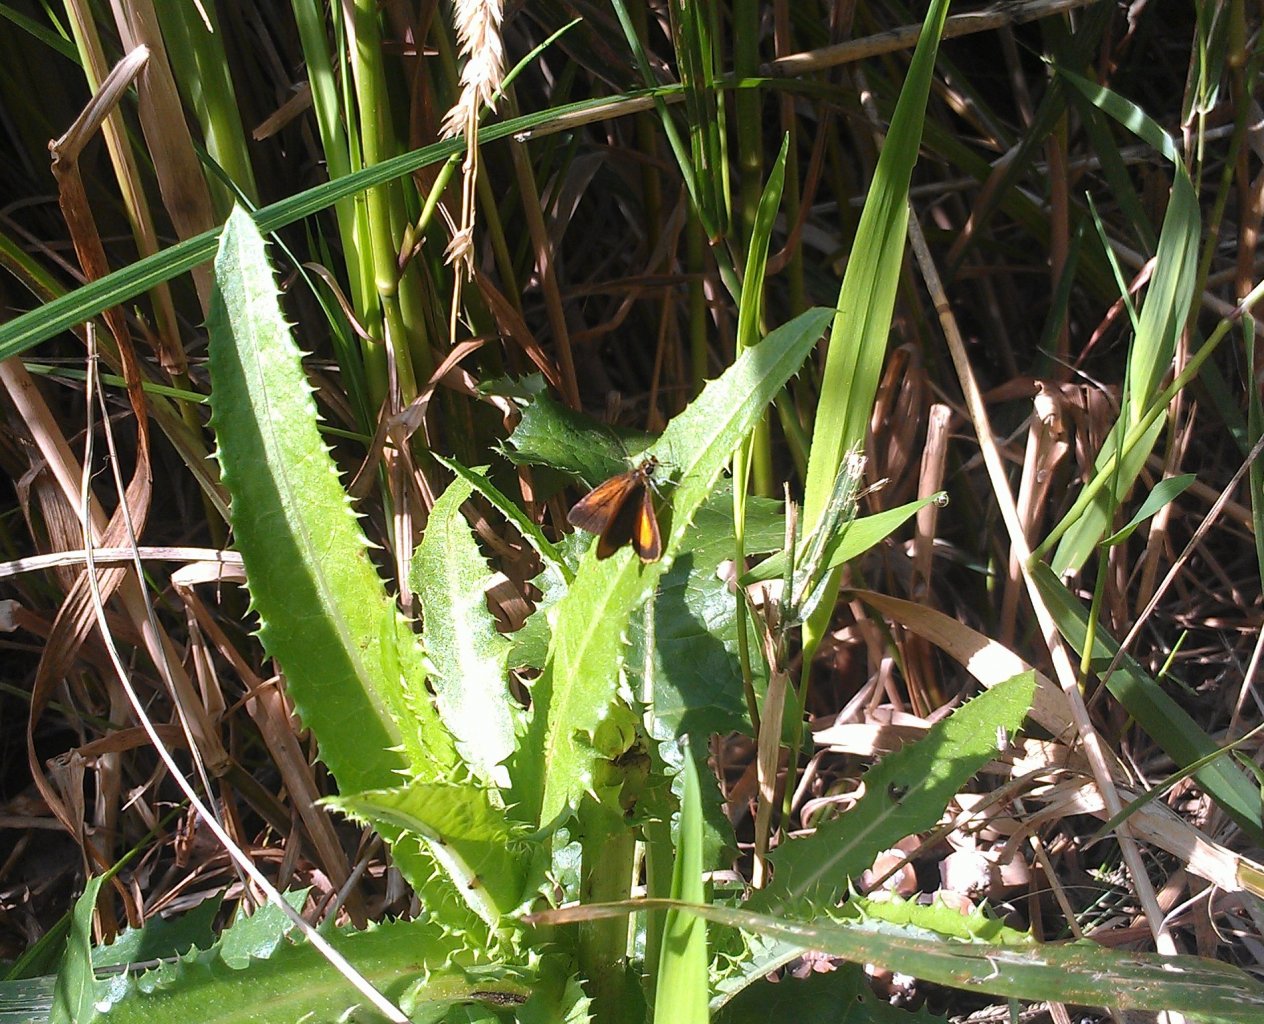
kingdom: Animalia
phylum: Arthropoda
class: Insecta
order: Lepidoptera
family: Hesperiidae
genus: Ancyloxypha
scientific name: Ancyloxypha numitor
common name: Least Skipper
